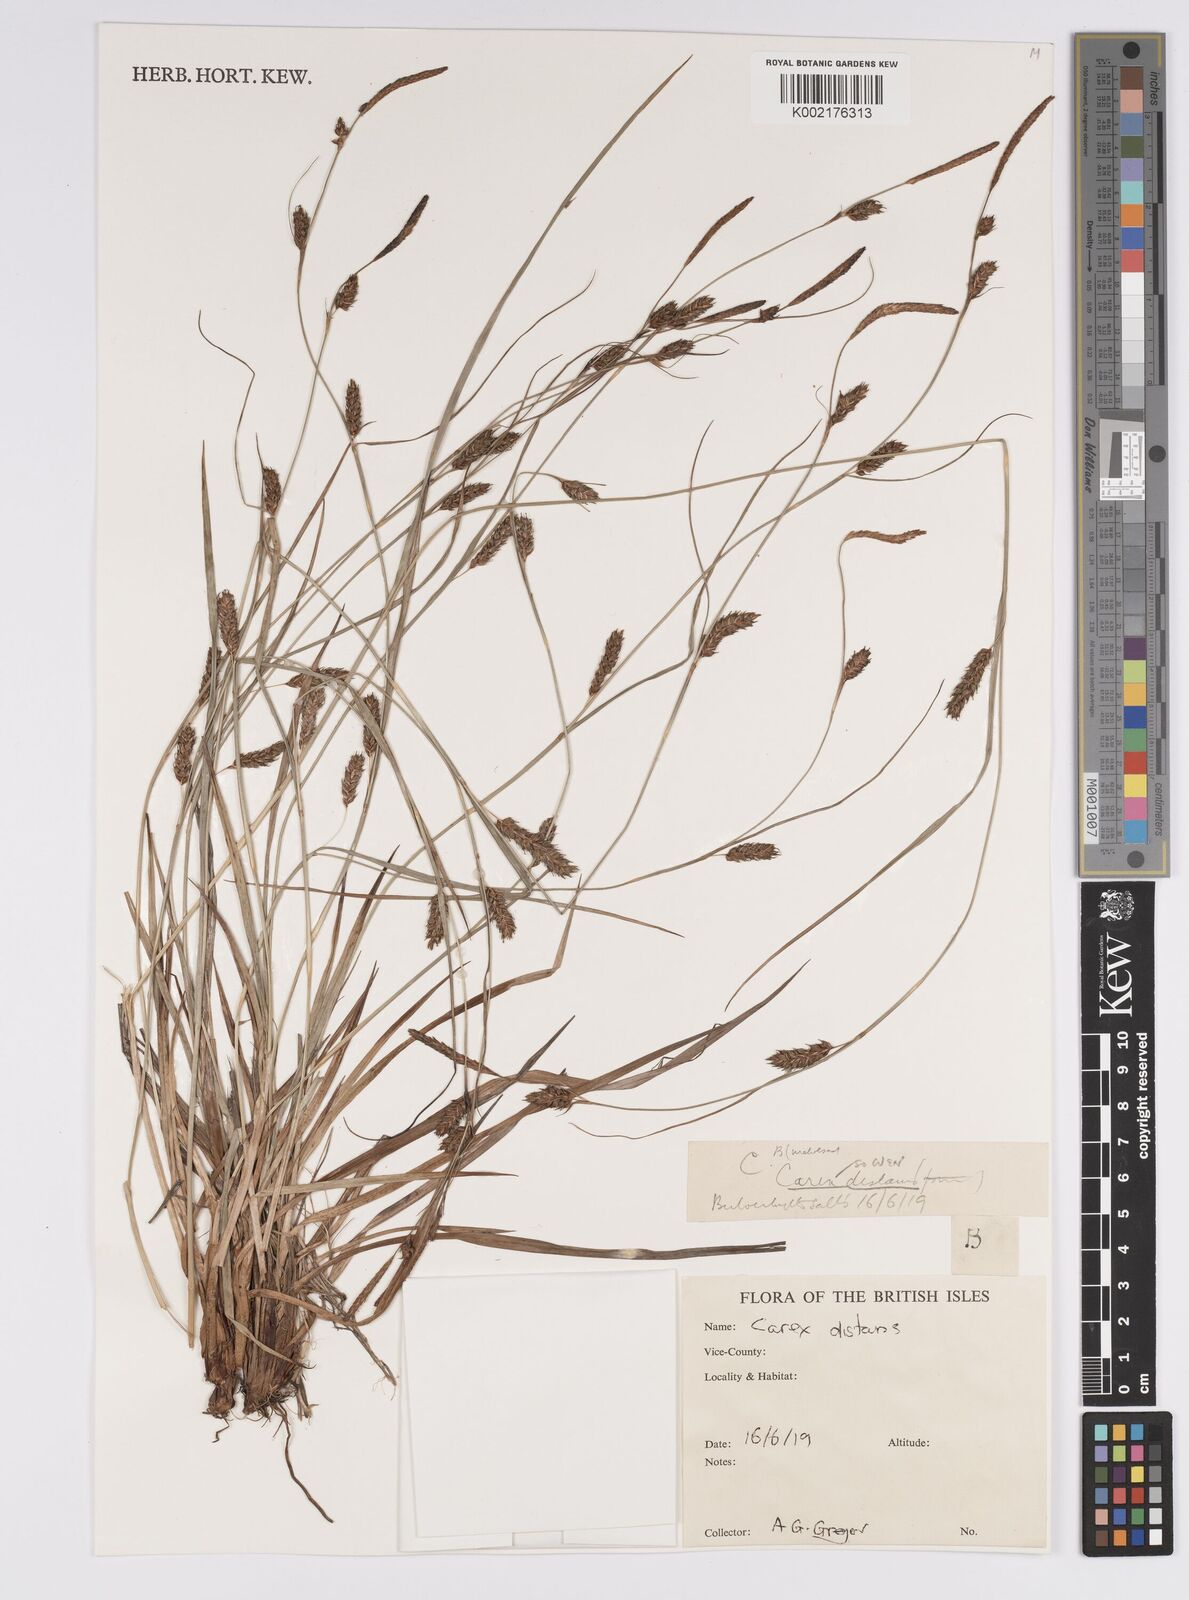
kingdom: Plantae
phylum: Tracheophyta
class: Liliopsida
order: Poales
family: Cyperaceae
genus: Carex
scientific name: Carex distans
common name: Distant sedge
